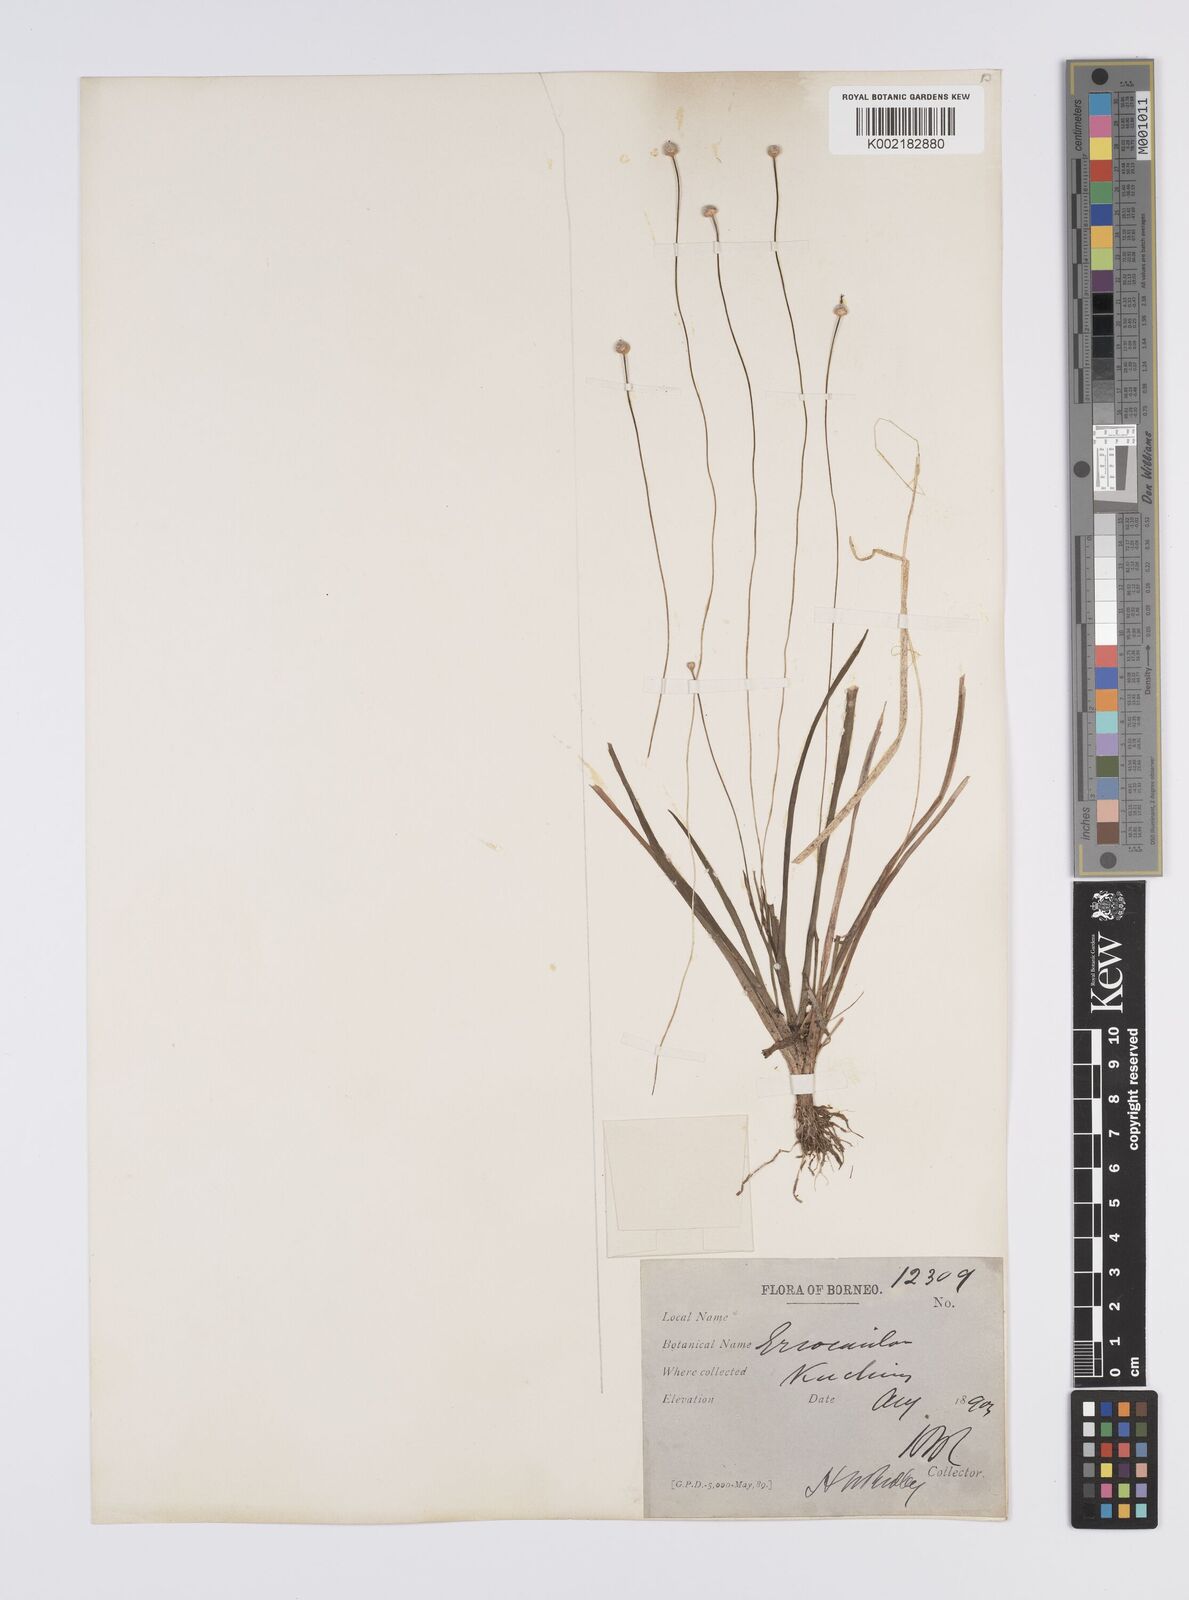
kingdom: Plantae
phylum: Tracheophyta
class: Liliopsida
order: Poales
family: Eriocaulaceae
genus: Eriocaulon
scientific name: Eriocaulon
